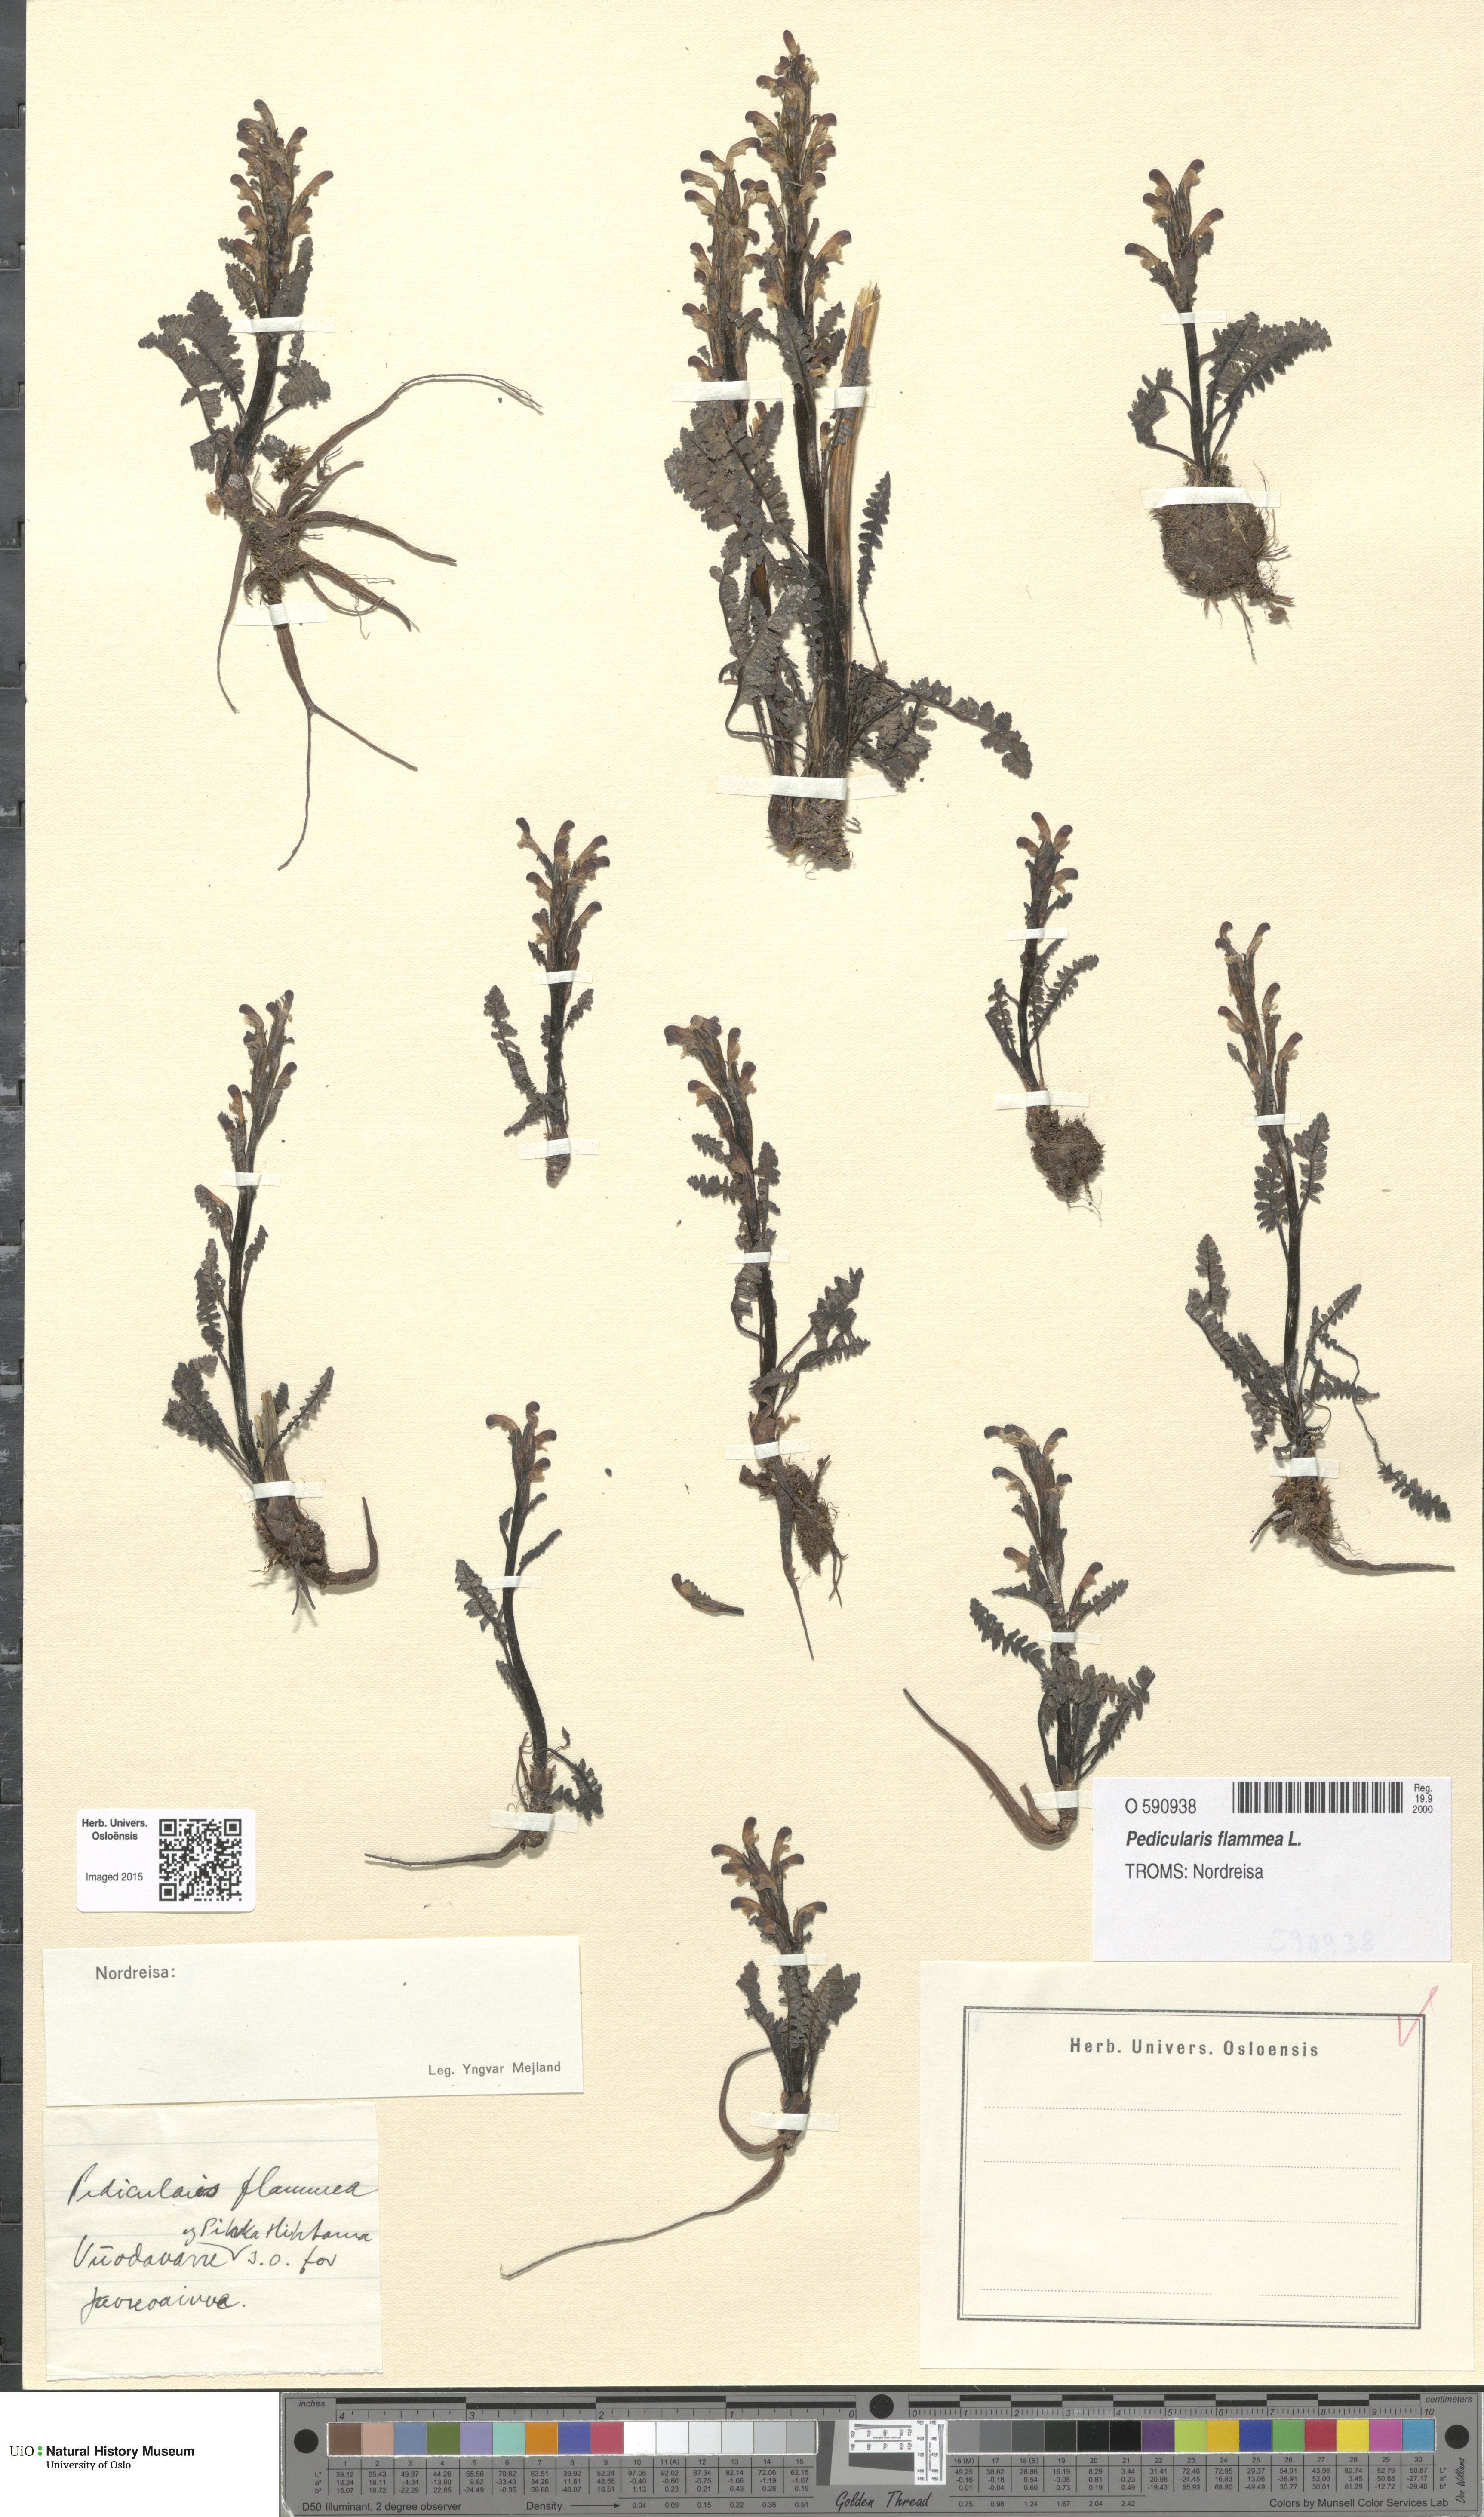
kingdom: Plantae
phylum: Tracheophyta
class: Magnoliopsida
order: Lamiales
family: Orobanchaceae
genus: Pedicularis
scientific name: Pedicularis flammea
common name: Flame-coloured lousewort
